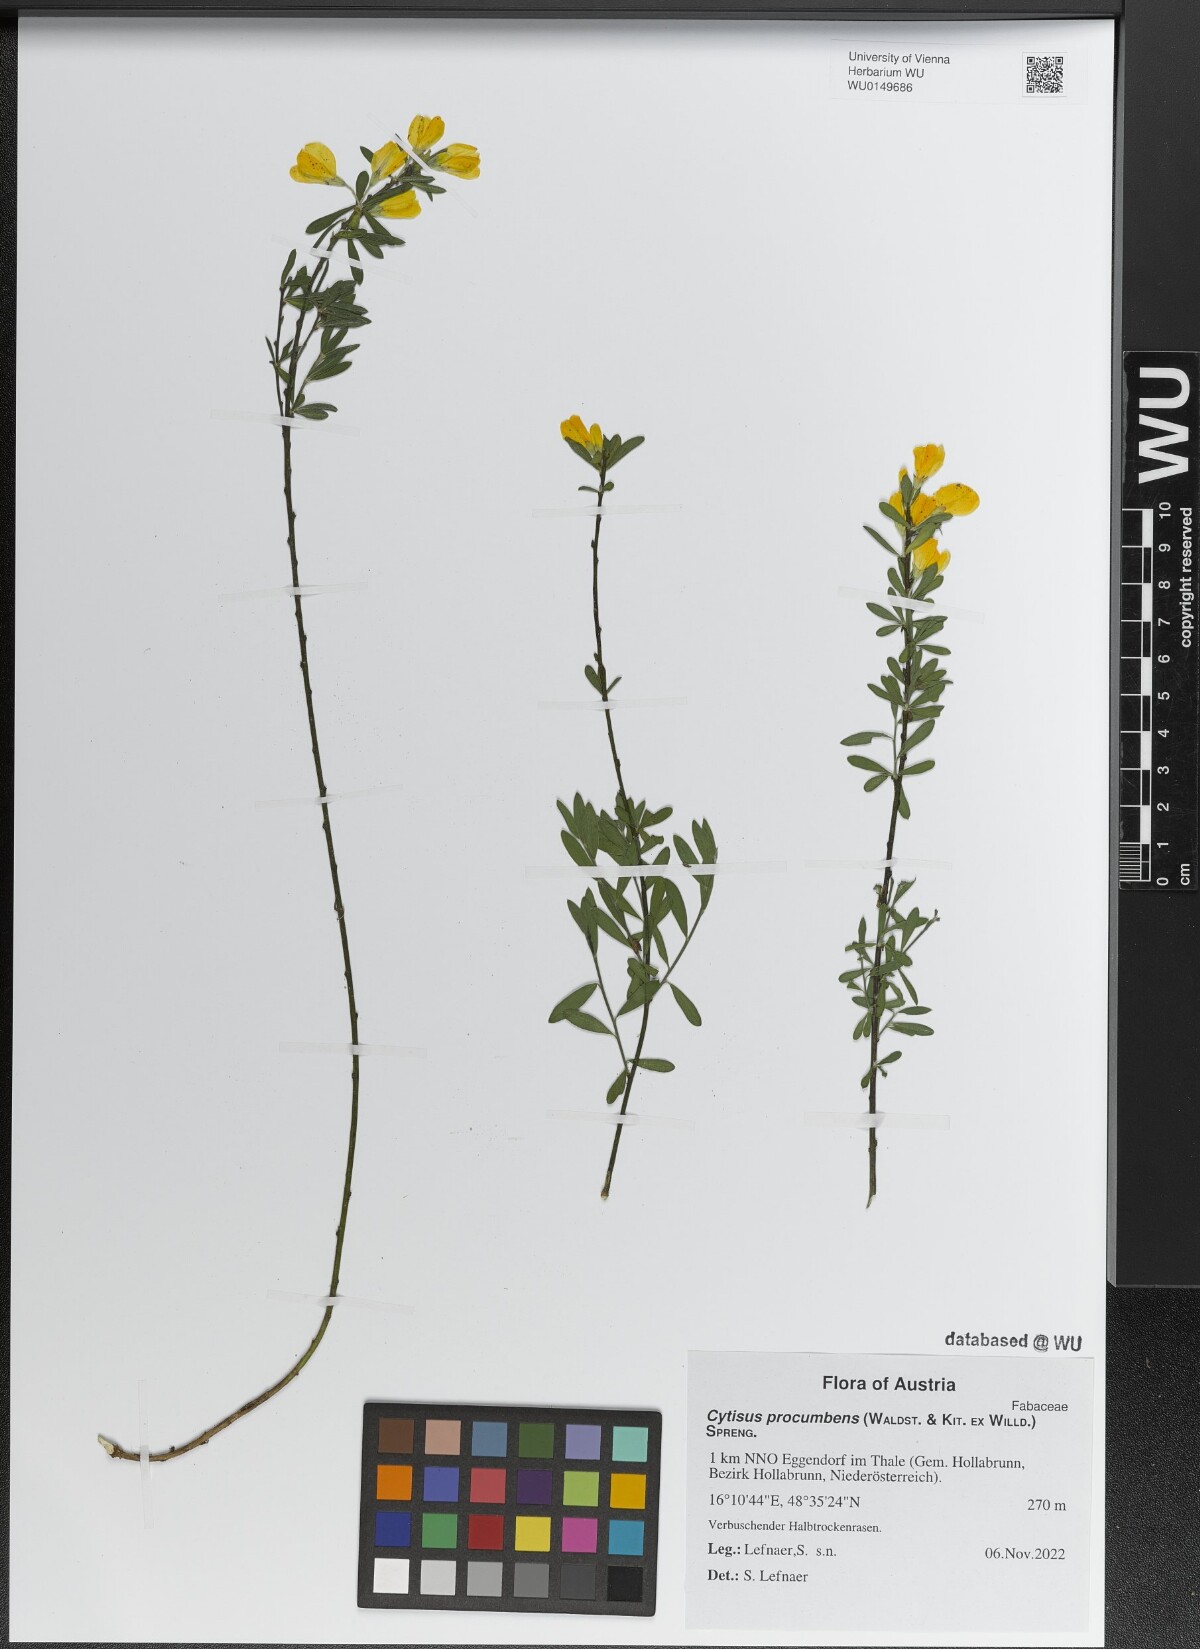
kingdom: Plantae
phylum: Tracheophyta
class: Magnoliopsida
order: Fabales
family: Fabaceae
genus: Cytisus
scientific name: Cytisus procumbens
